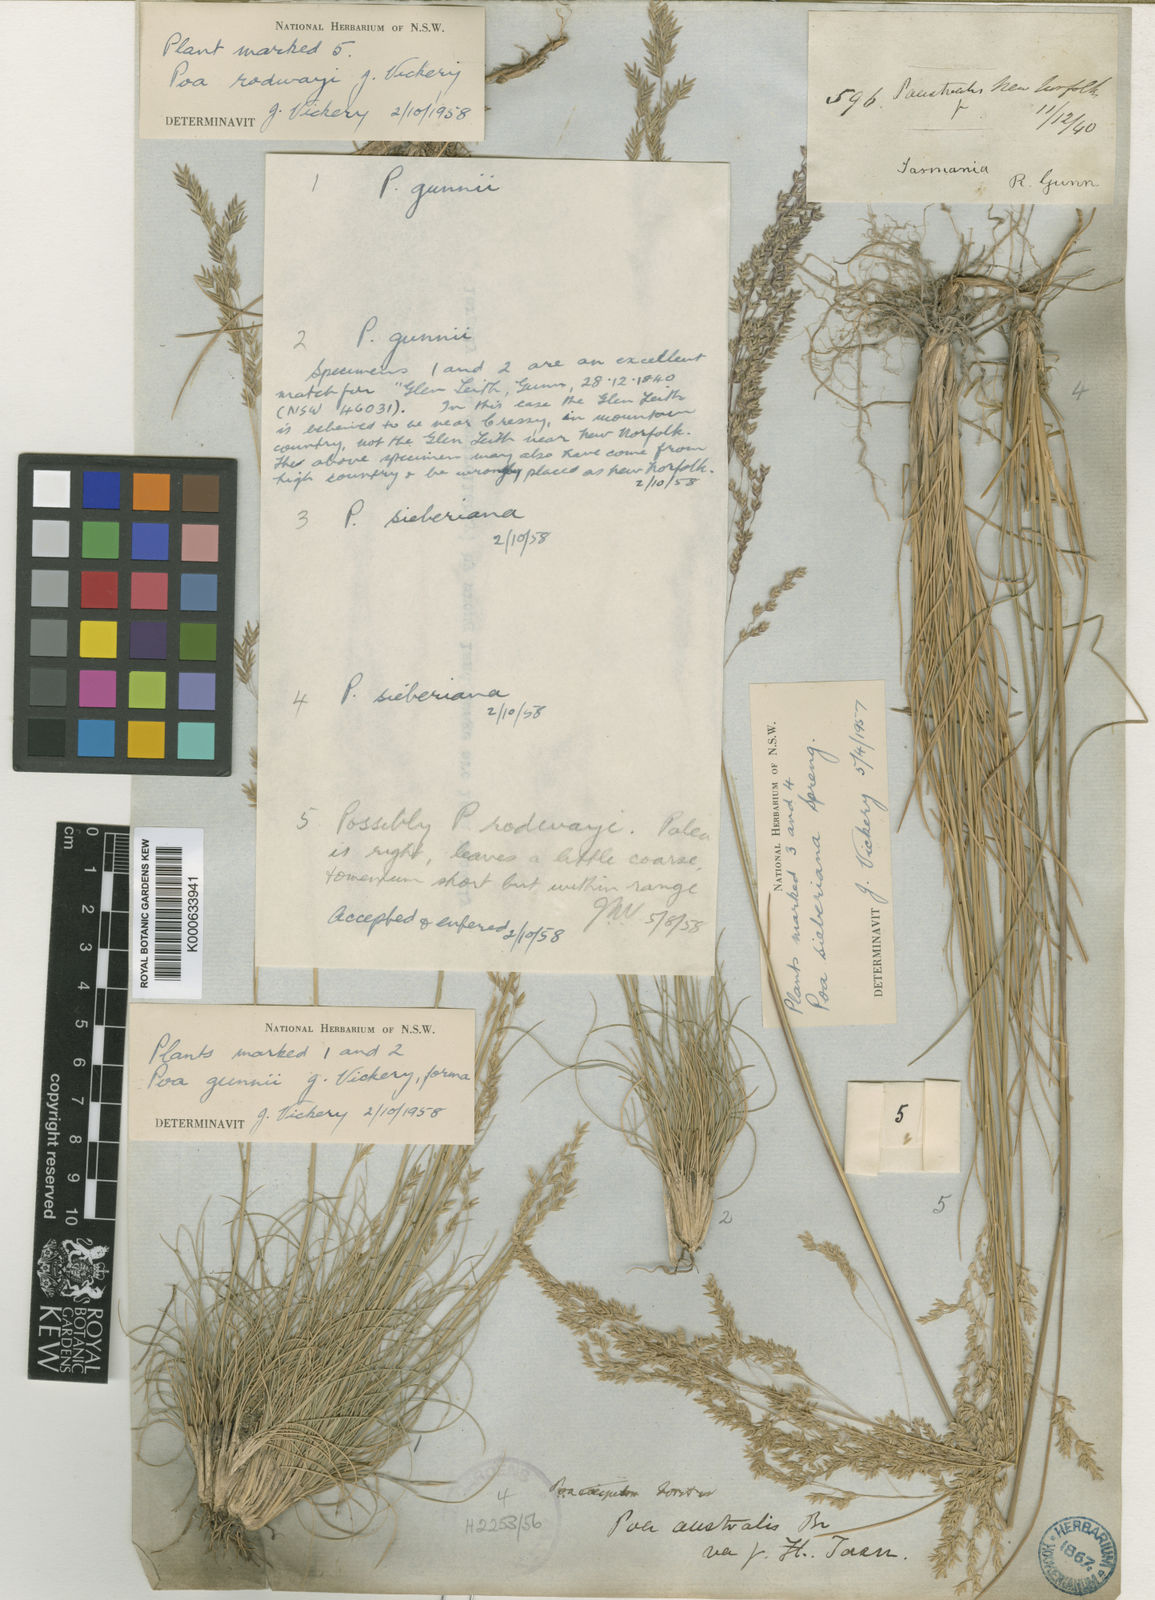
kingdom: Plantae
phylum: Tracheophyta
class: Liliopsida
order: Poales
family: Poaceae
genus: Poa
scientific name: Poa sieberiana
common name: Tussock poa
